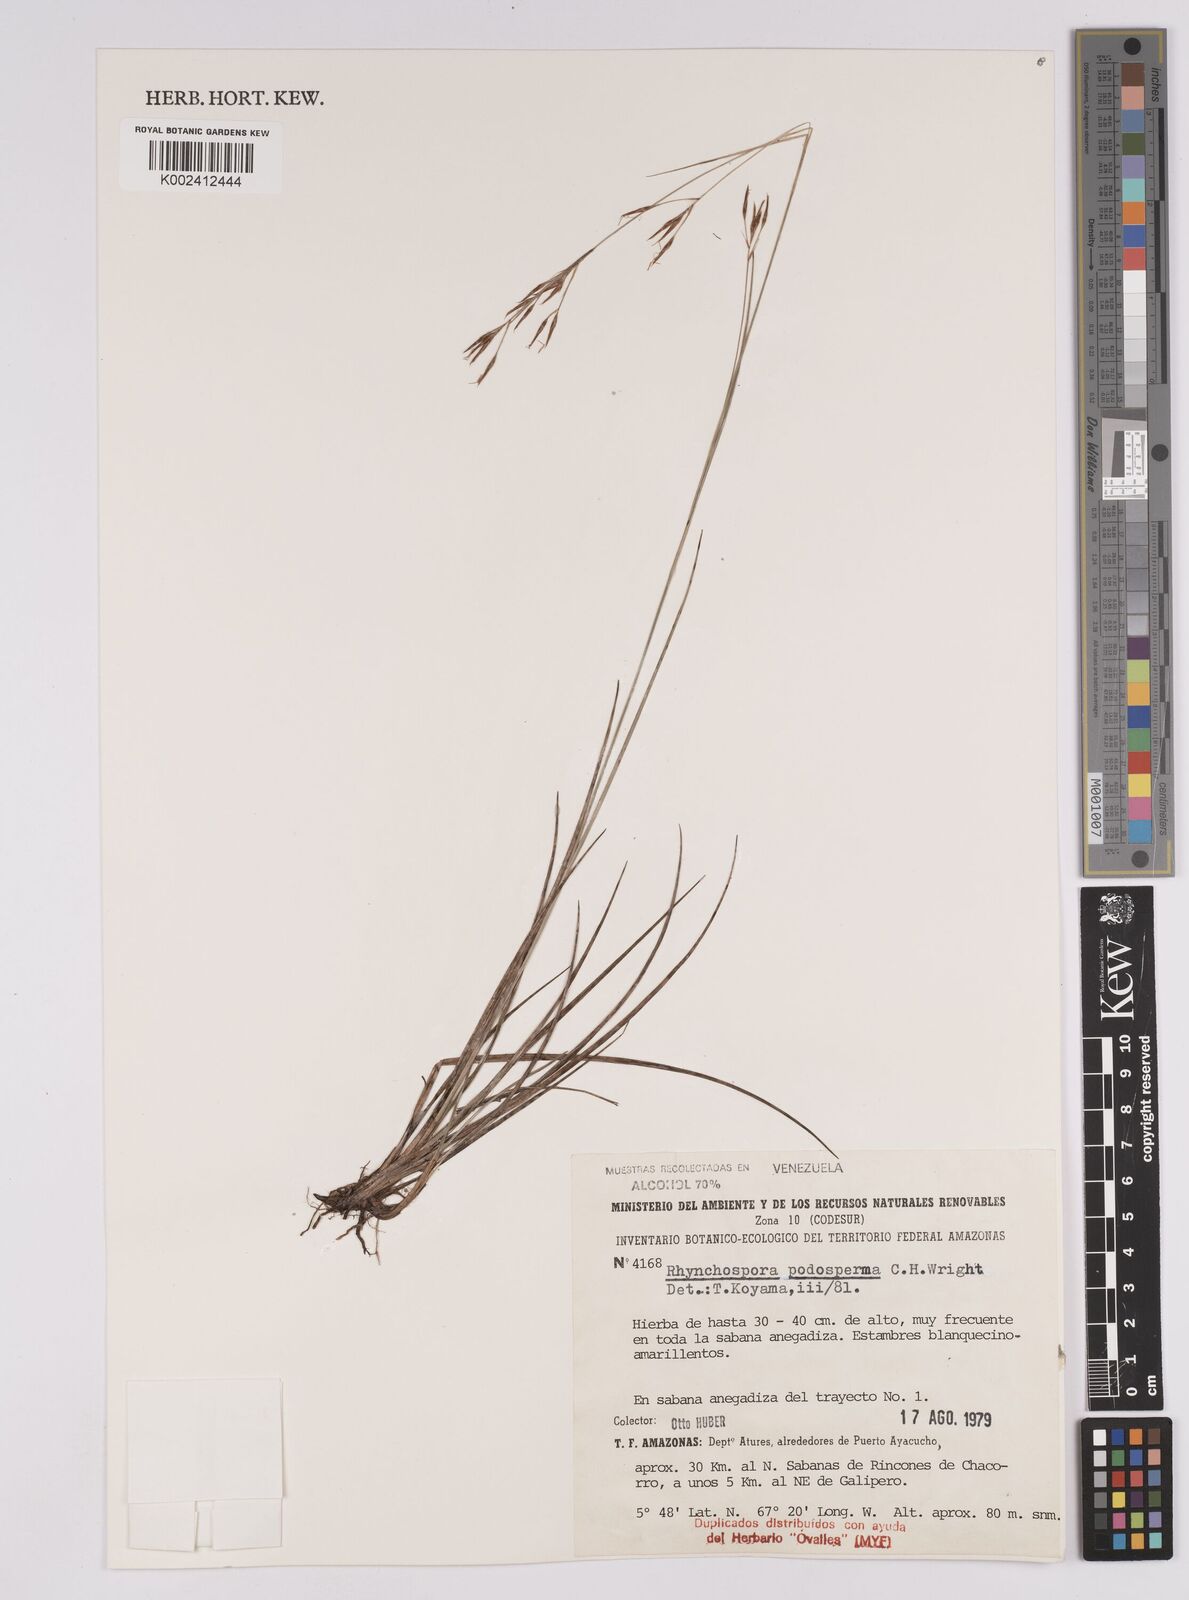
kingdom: Plantae
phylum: Tracheophyta
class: Liliopsida
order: Poales
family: Cyperaceae
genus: Rhynchospora
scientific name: Rhynchospora filiformis
